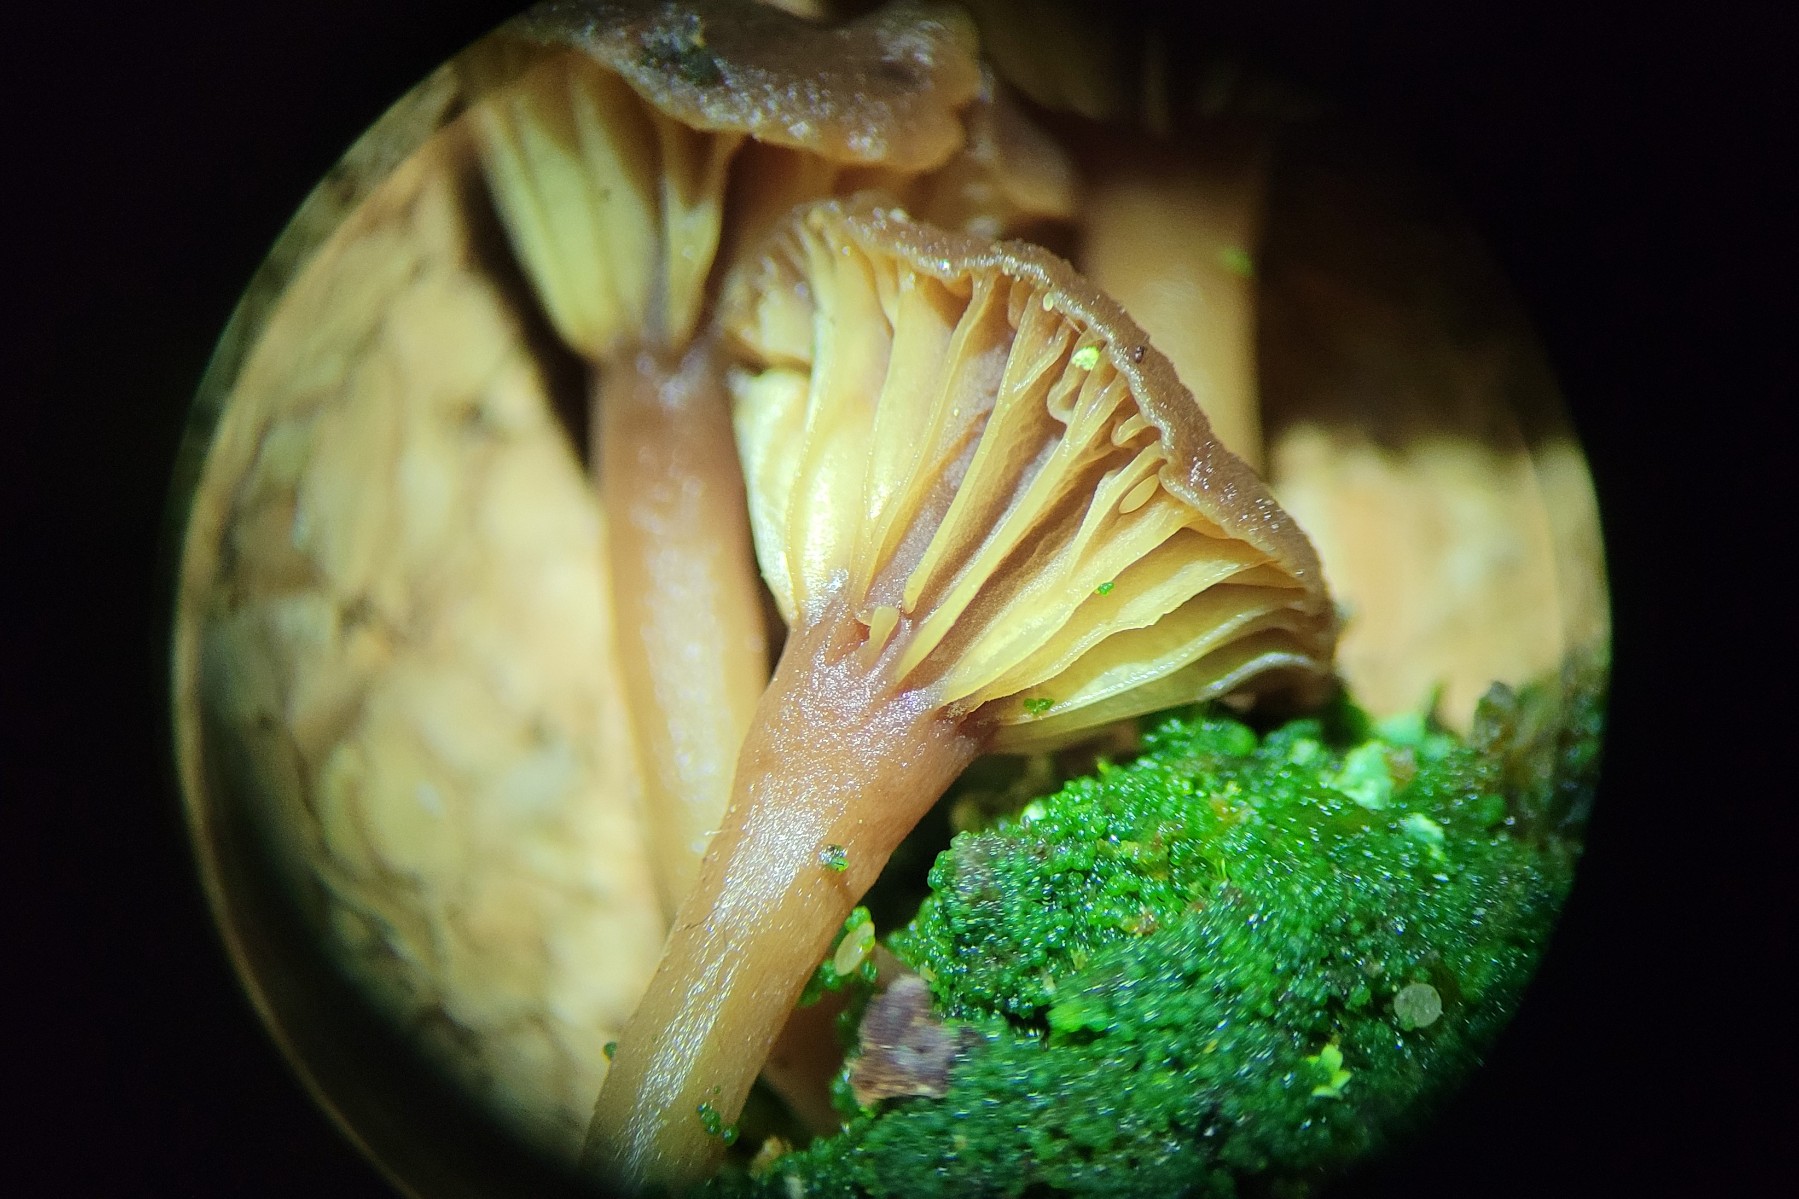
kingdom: Fungi
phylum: Basidiomycota
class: Agaricomycetes
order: Agaricales
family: Hygrophoraceae
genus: Lichenomphalia
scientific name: Lichenomphalia umbellifera
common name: tørve-lavhat
